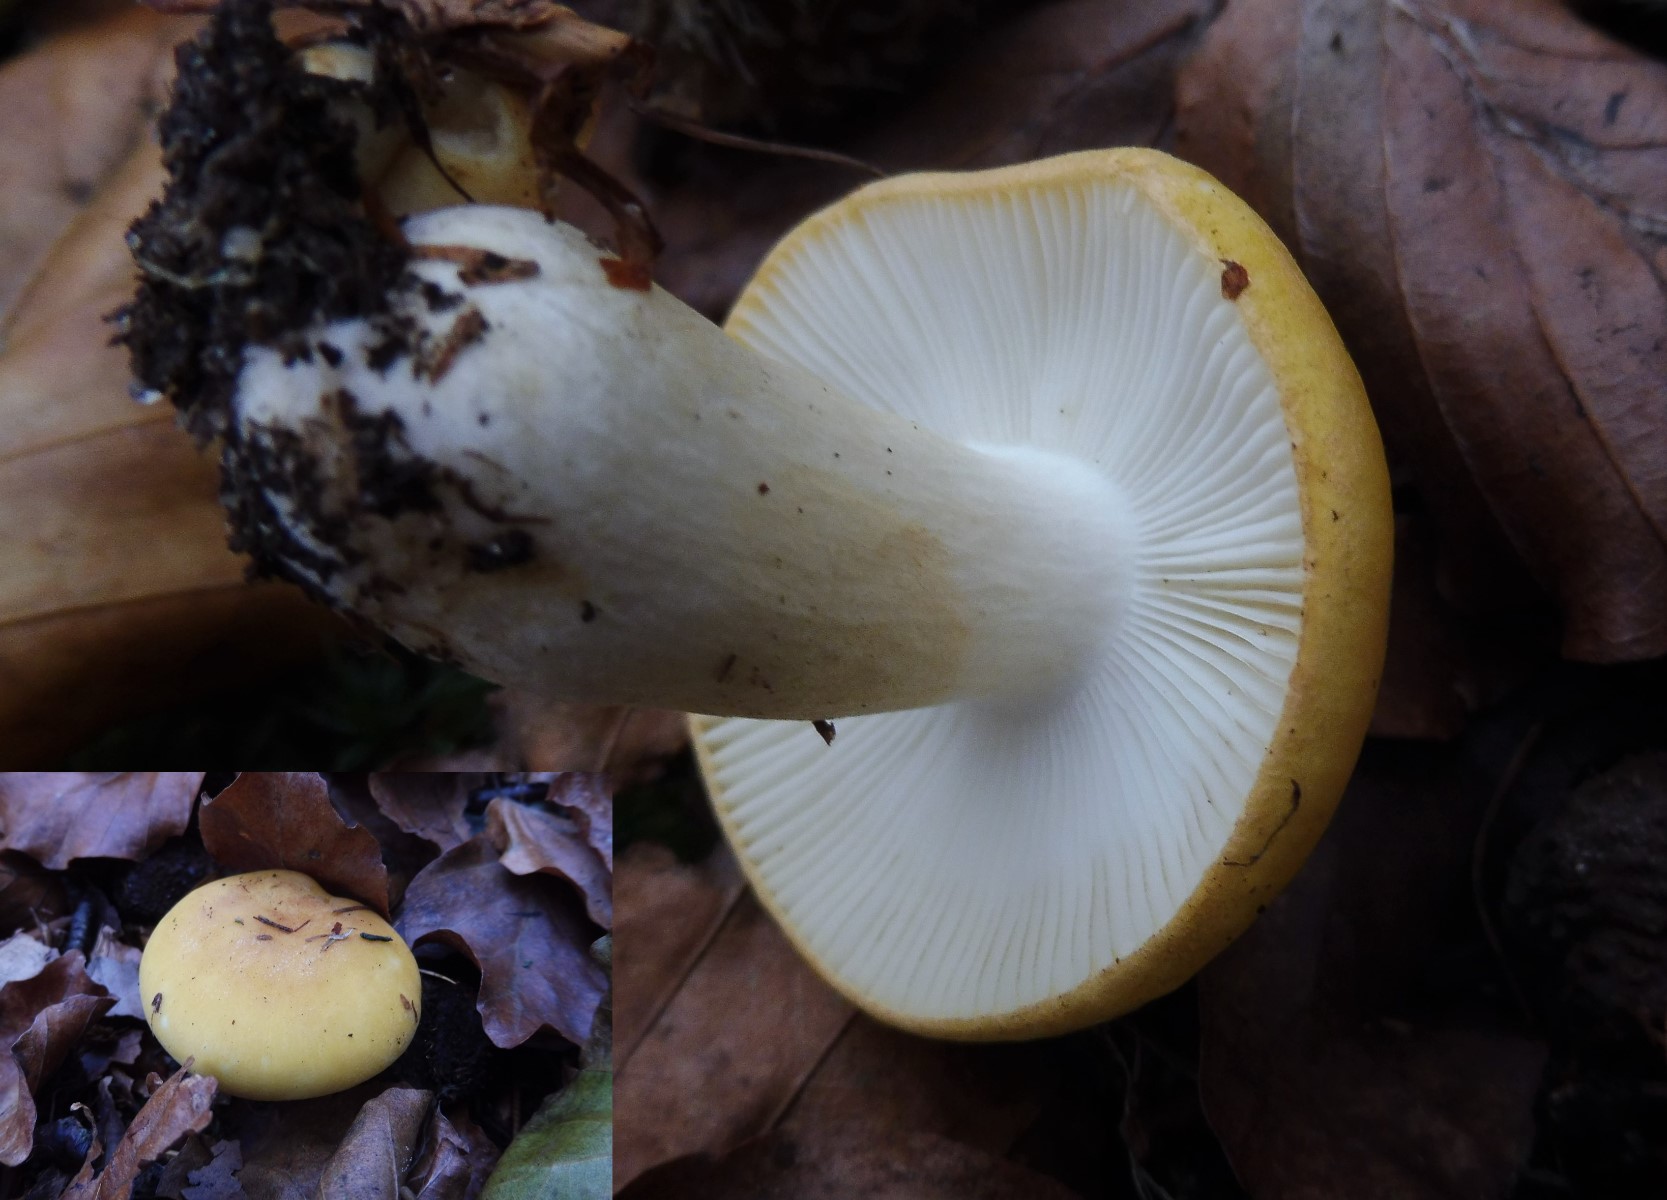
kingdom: Fungi
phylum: Basidiomycota
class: Agaricomycetes
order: Russulales
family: Russulaceae
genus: Russula
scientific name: Russula ochroleuca
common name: okkergul skørhat
